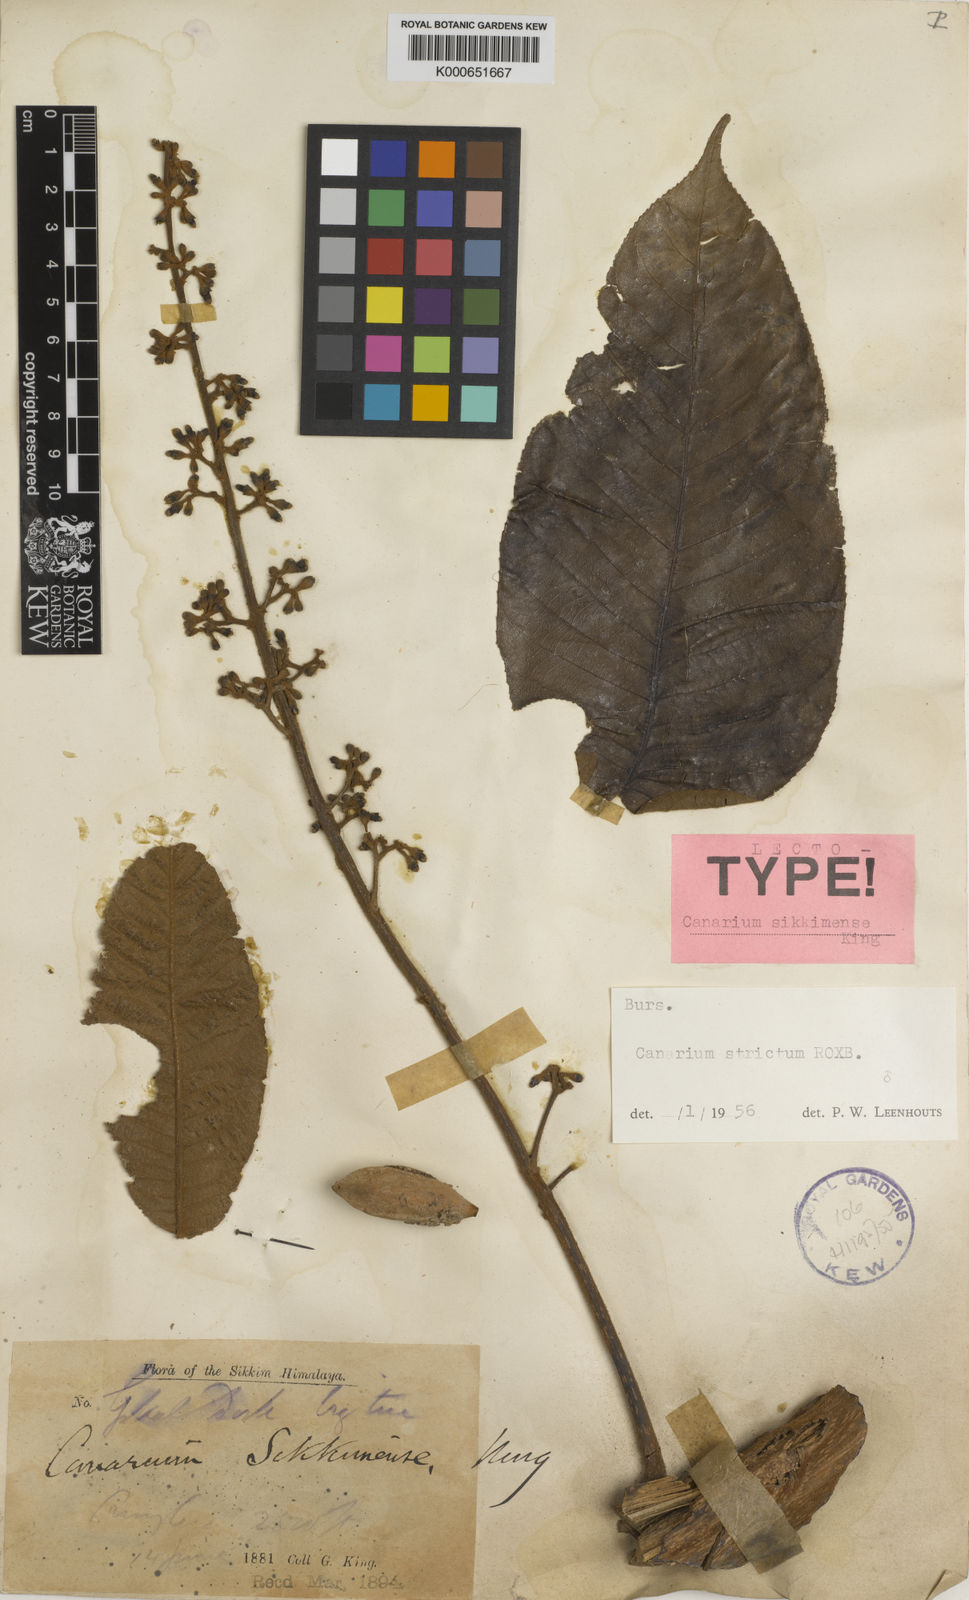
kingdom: Plantae
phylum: Tracheophyta
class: Magnoliopsida
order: Sapindales
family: Burseraceae
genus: Canarium
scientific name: Canarium strictum
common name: Indian white-mahogany
